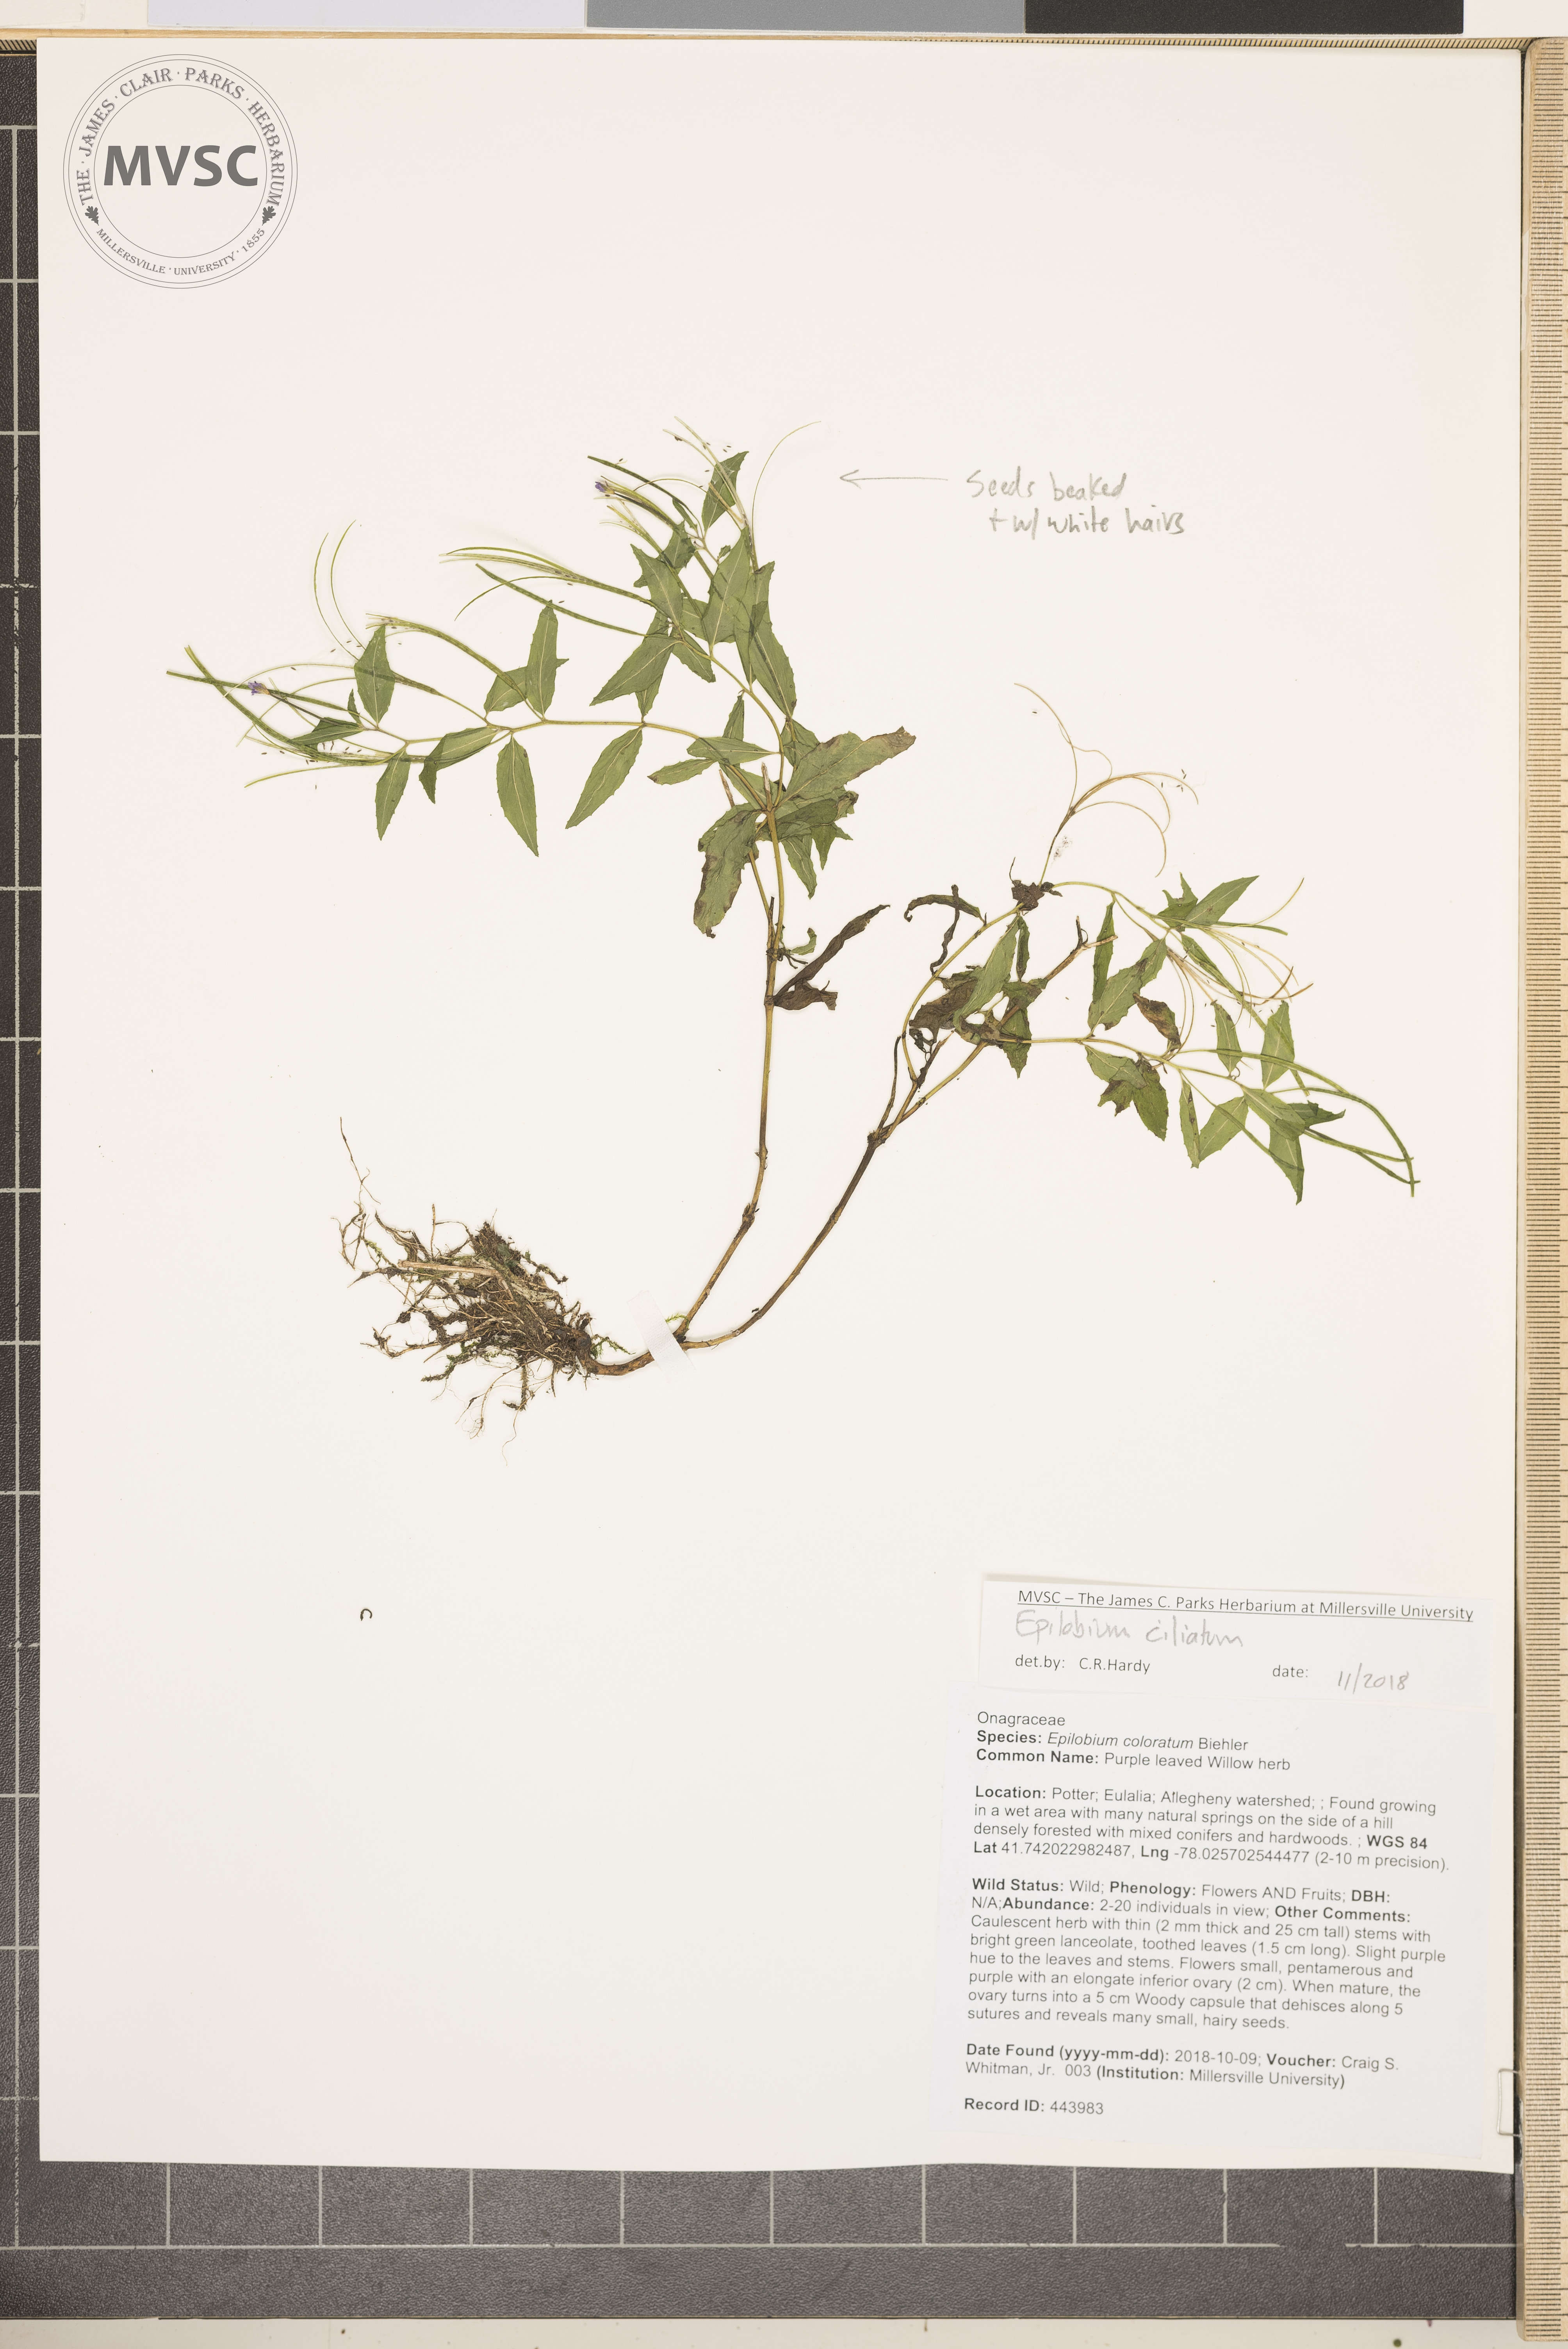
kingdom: Plantae
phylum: Tracheophyta
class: Magnoliopsida
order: Myrtales
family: Onagraceae
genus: Epilobium
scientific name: Epilobium ciliatum
